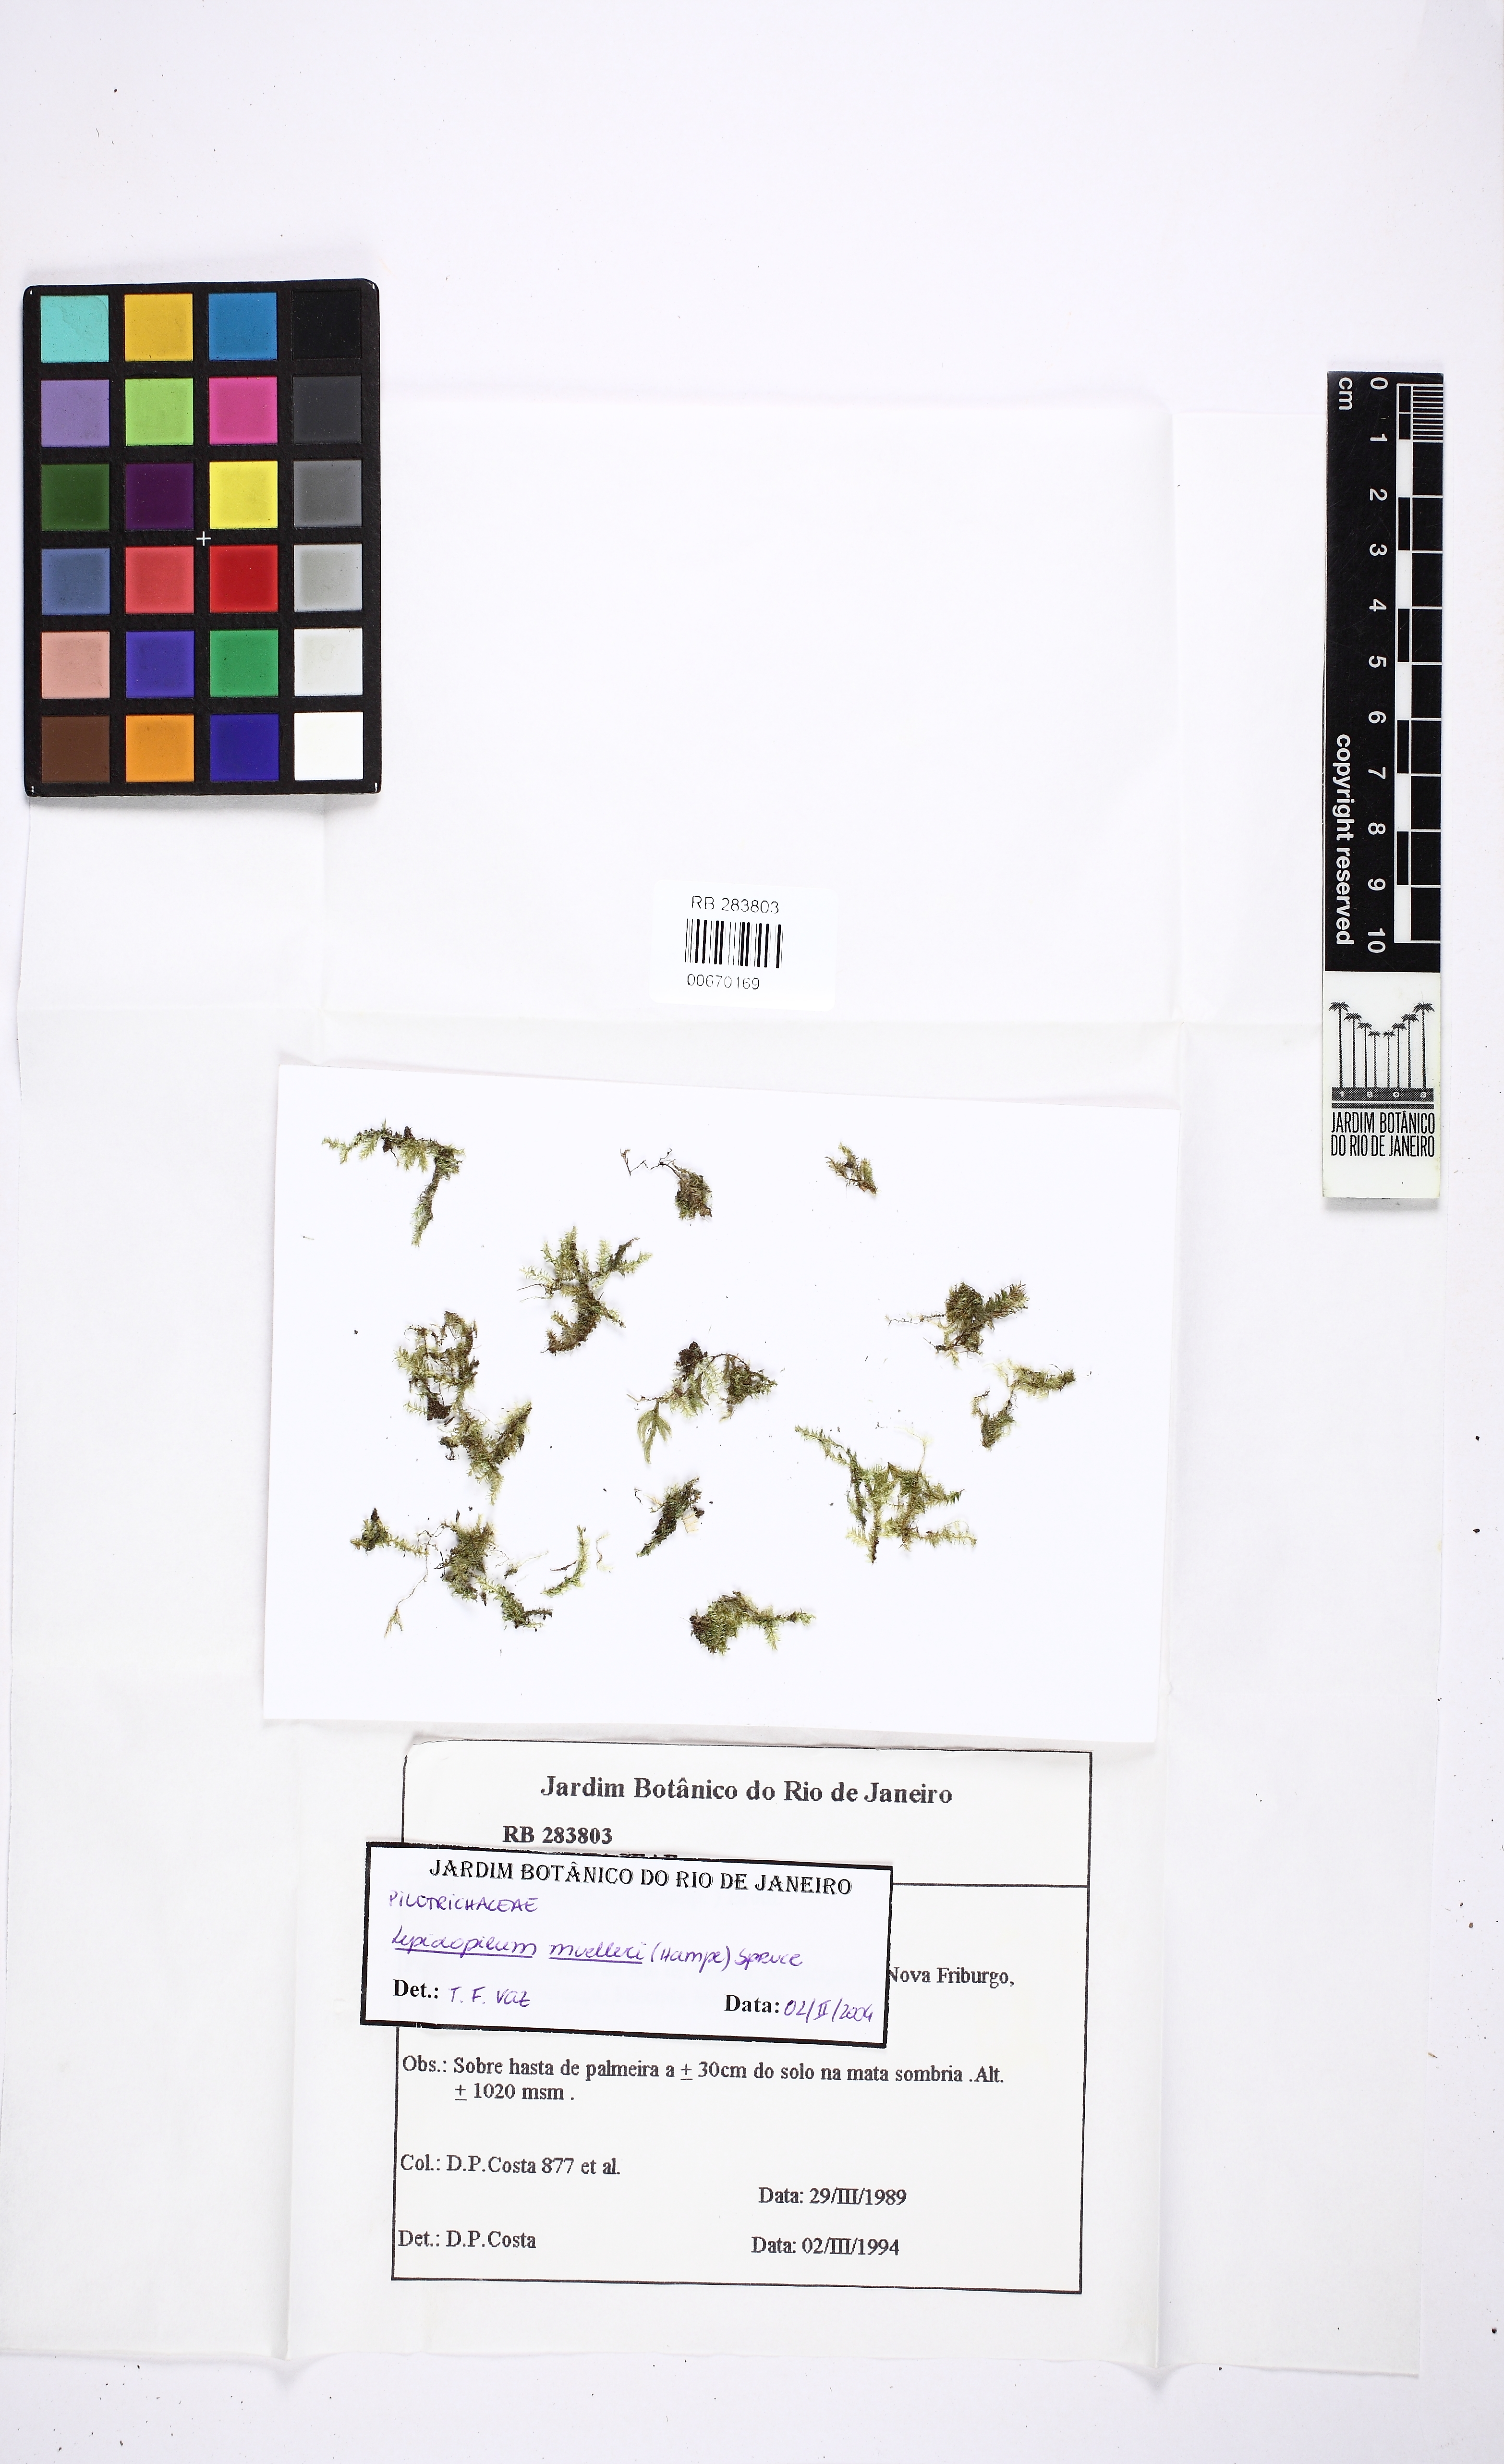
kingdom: Plantae
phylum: Bryophyta
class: Bryopsida
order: Hookeriales
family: Pilotrichaceae
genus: Lepidopilum
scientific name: Lepidopilum muelleri
